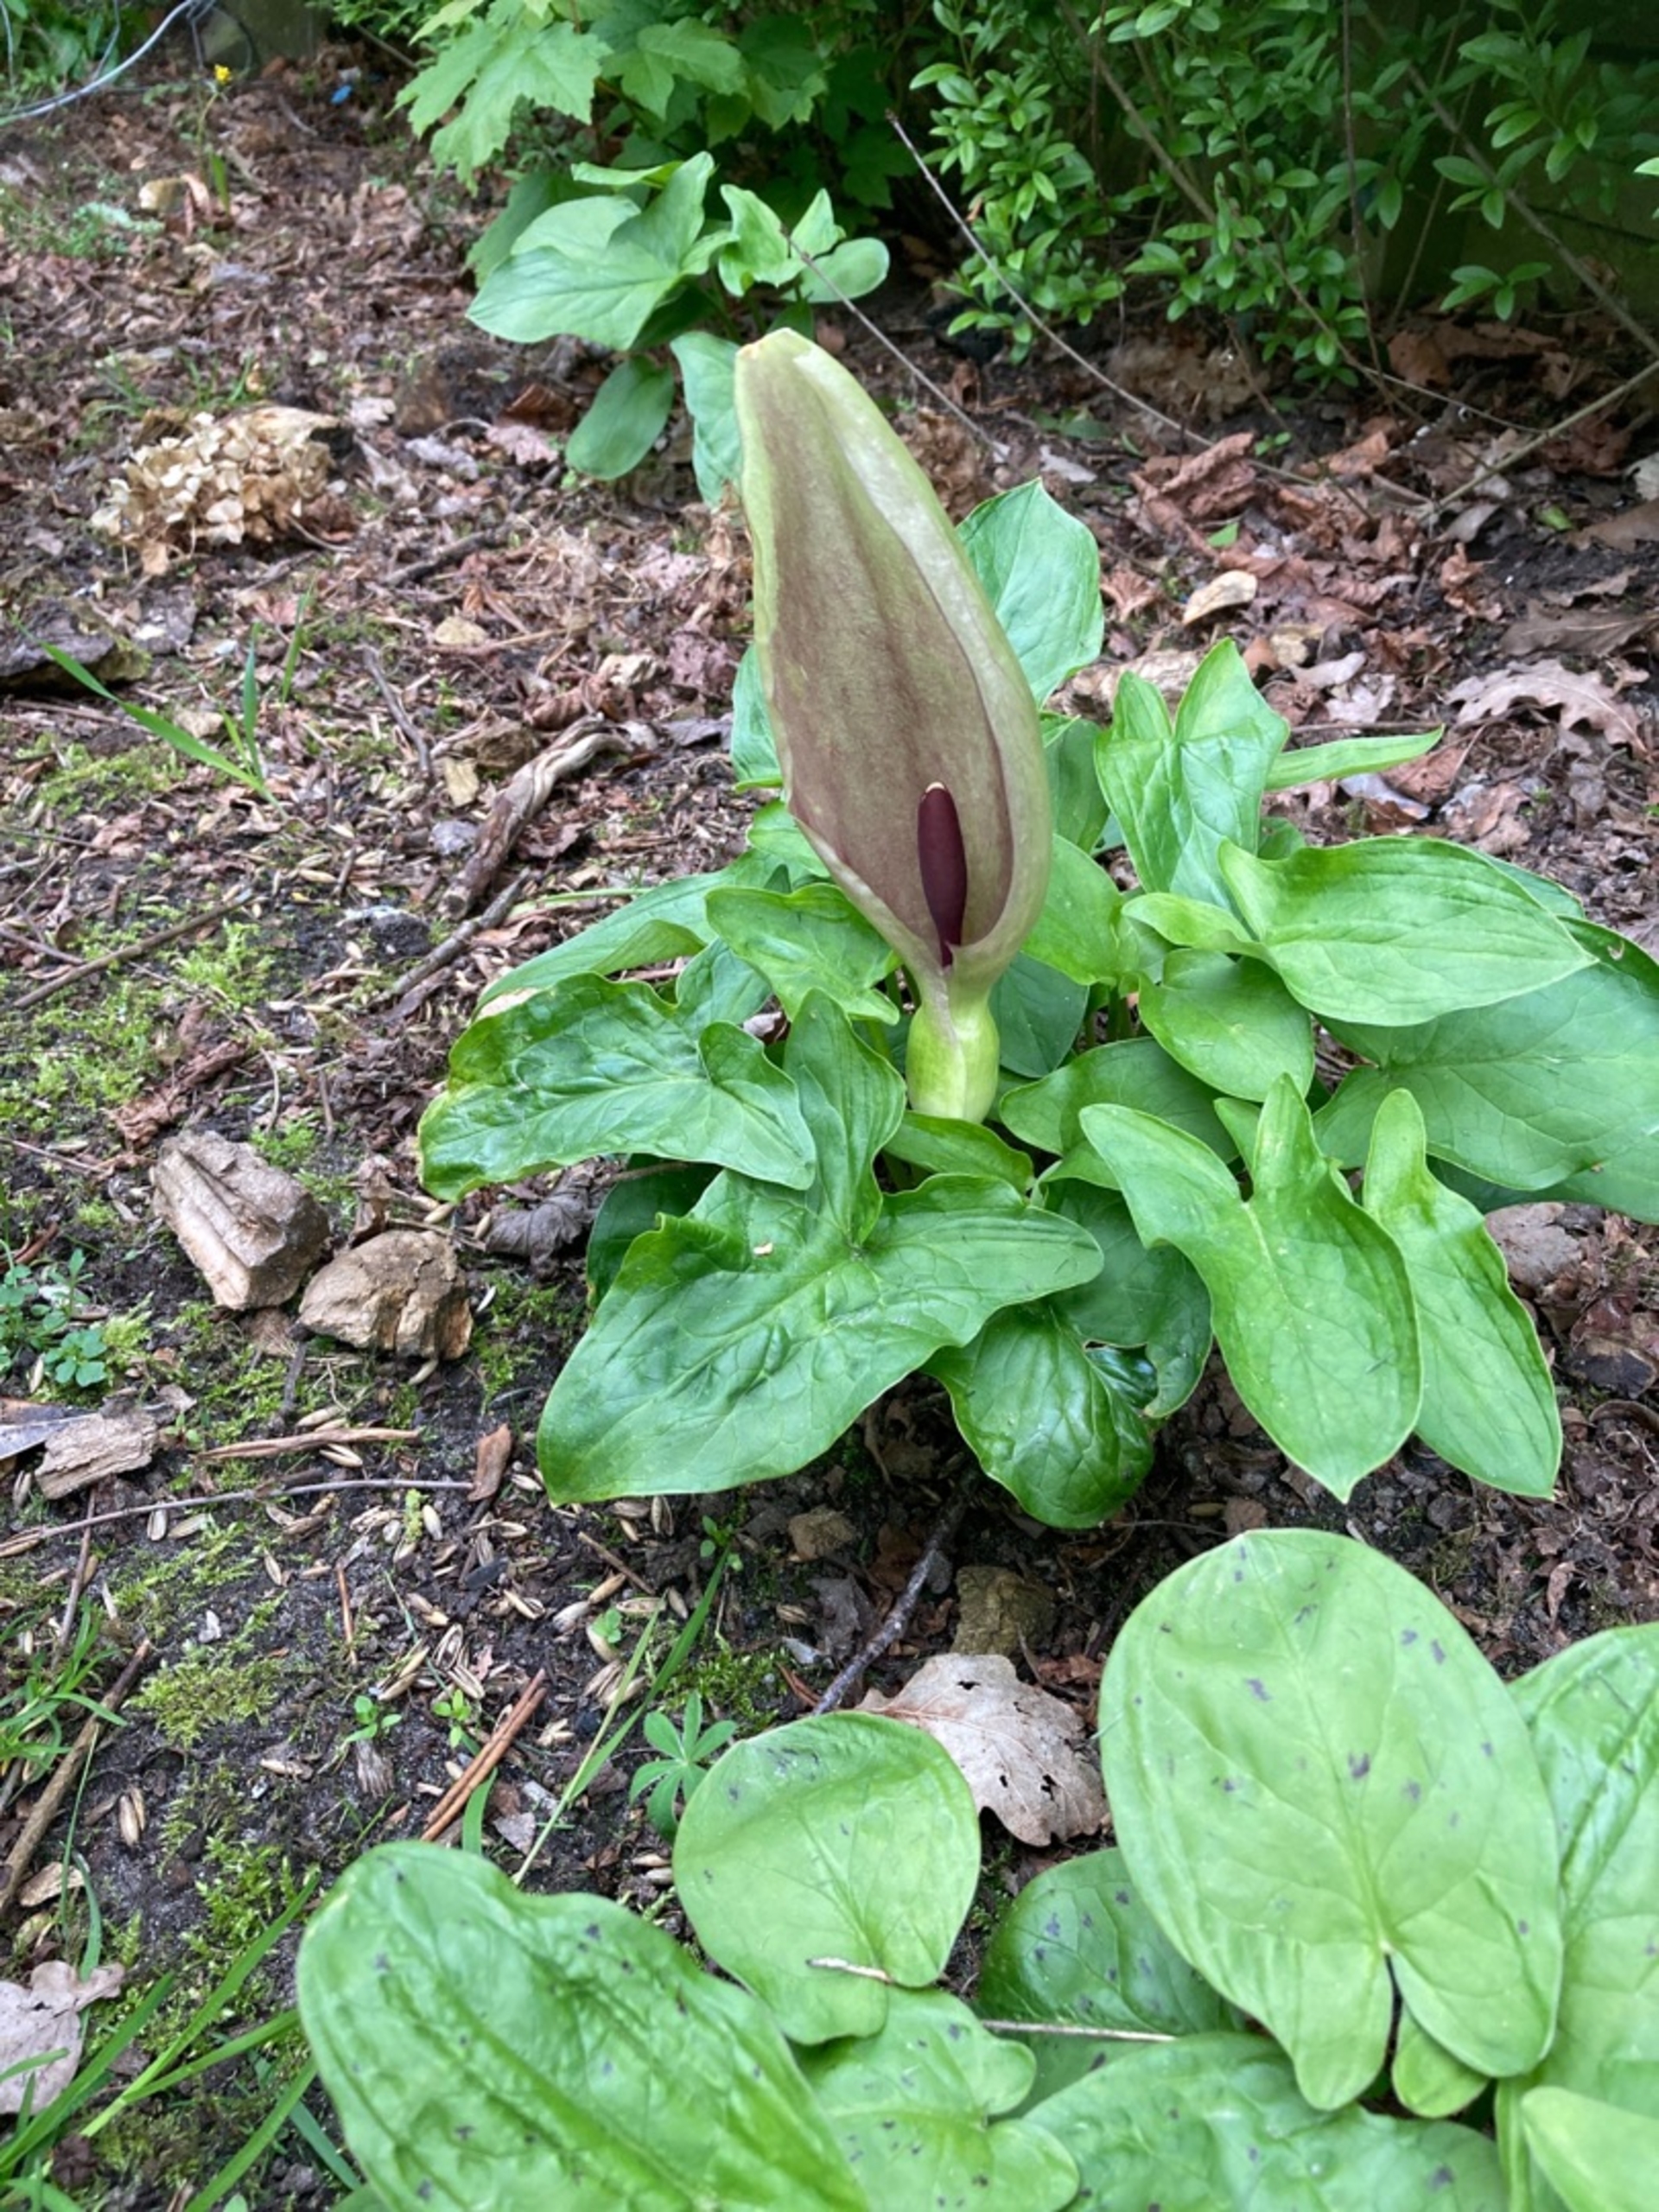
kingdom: Plantae
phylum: Tracheophyta
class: Liliopsida
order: Alismatales
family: Araceae
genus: Arum
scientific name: Arum maculatum
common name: Plettet arum
